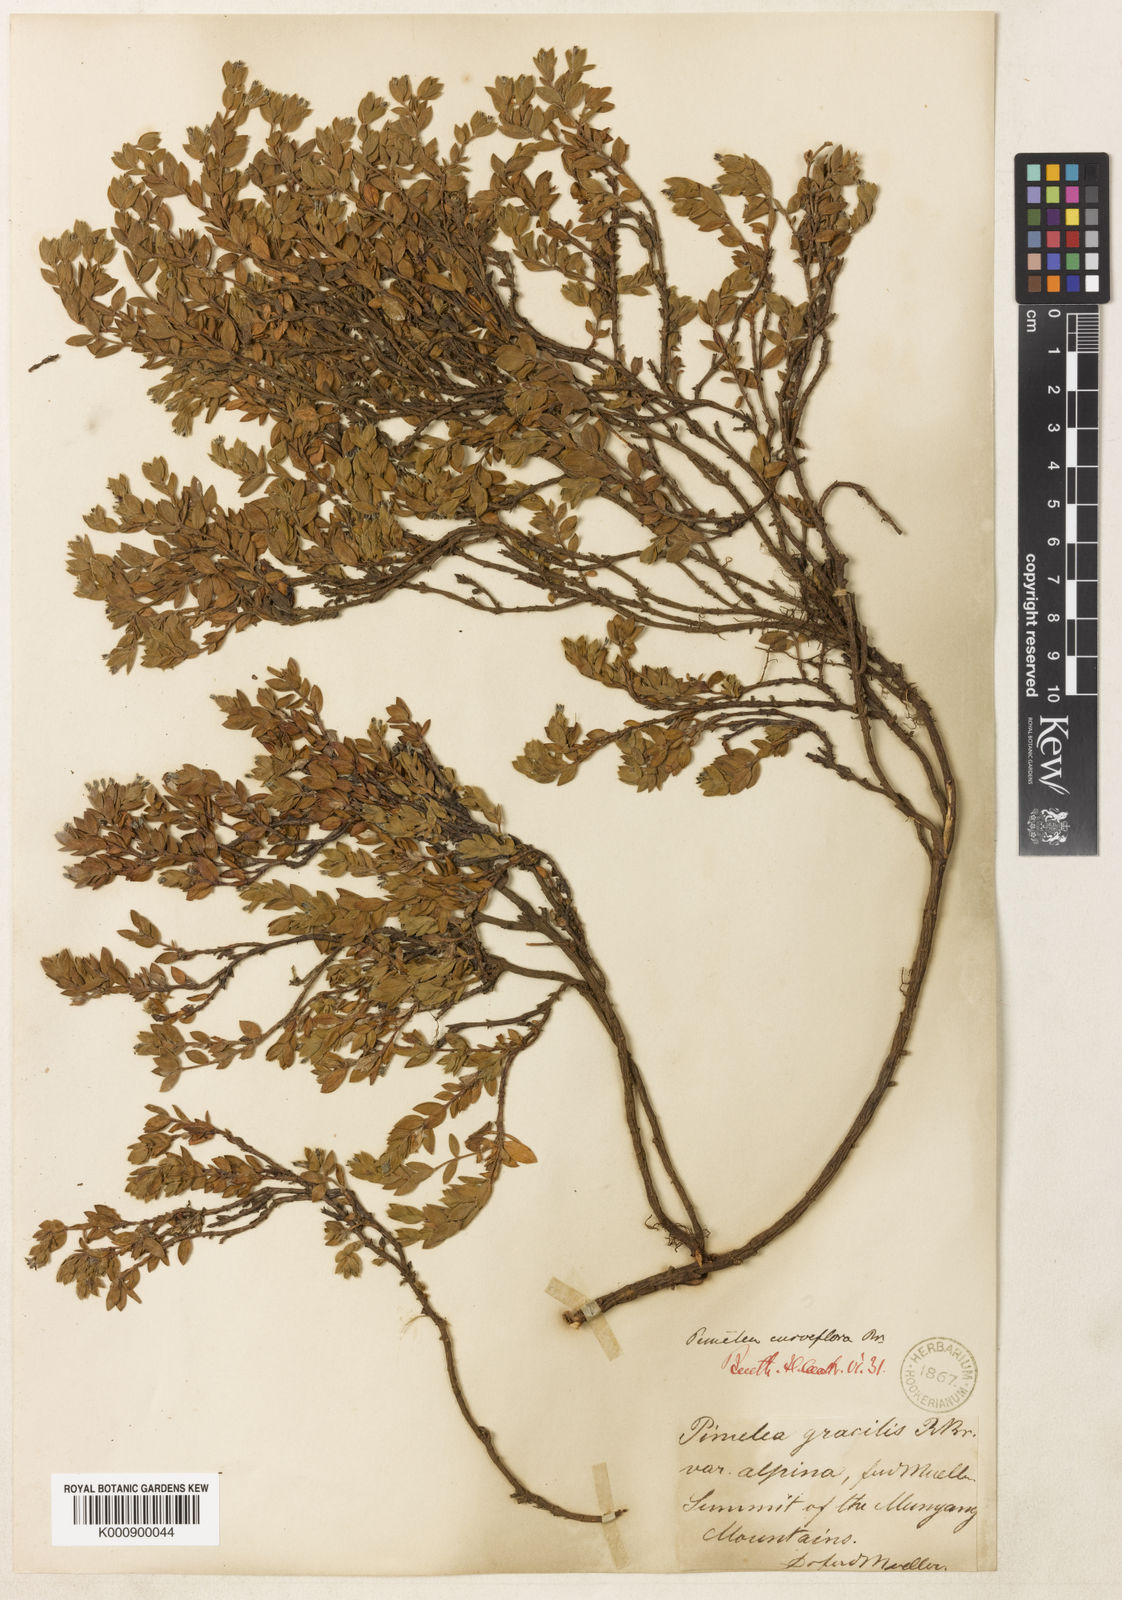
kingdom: Plantae
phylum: Tracheophyta
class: Magnoliopsida
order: Malvales
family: Thymelaeaceae
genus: Pimelea
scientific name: Pimelea biflora
